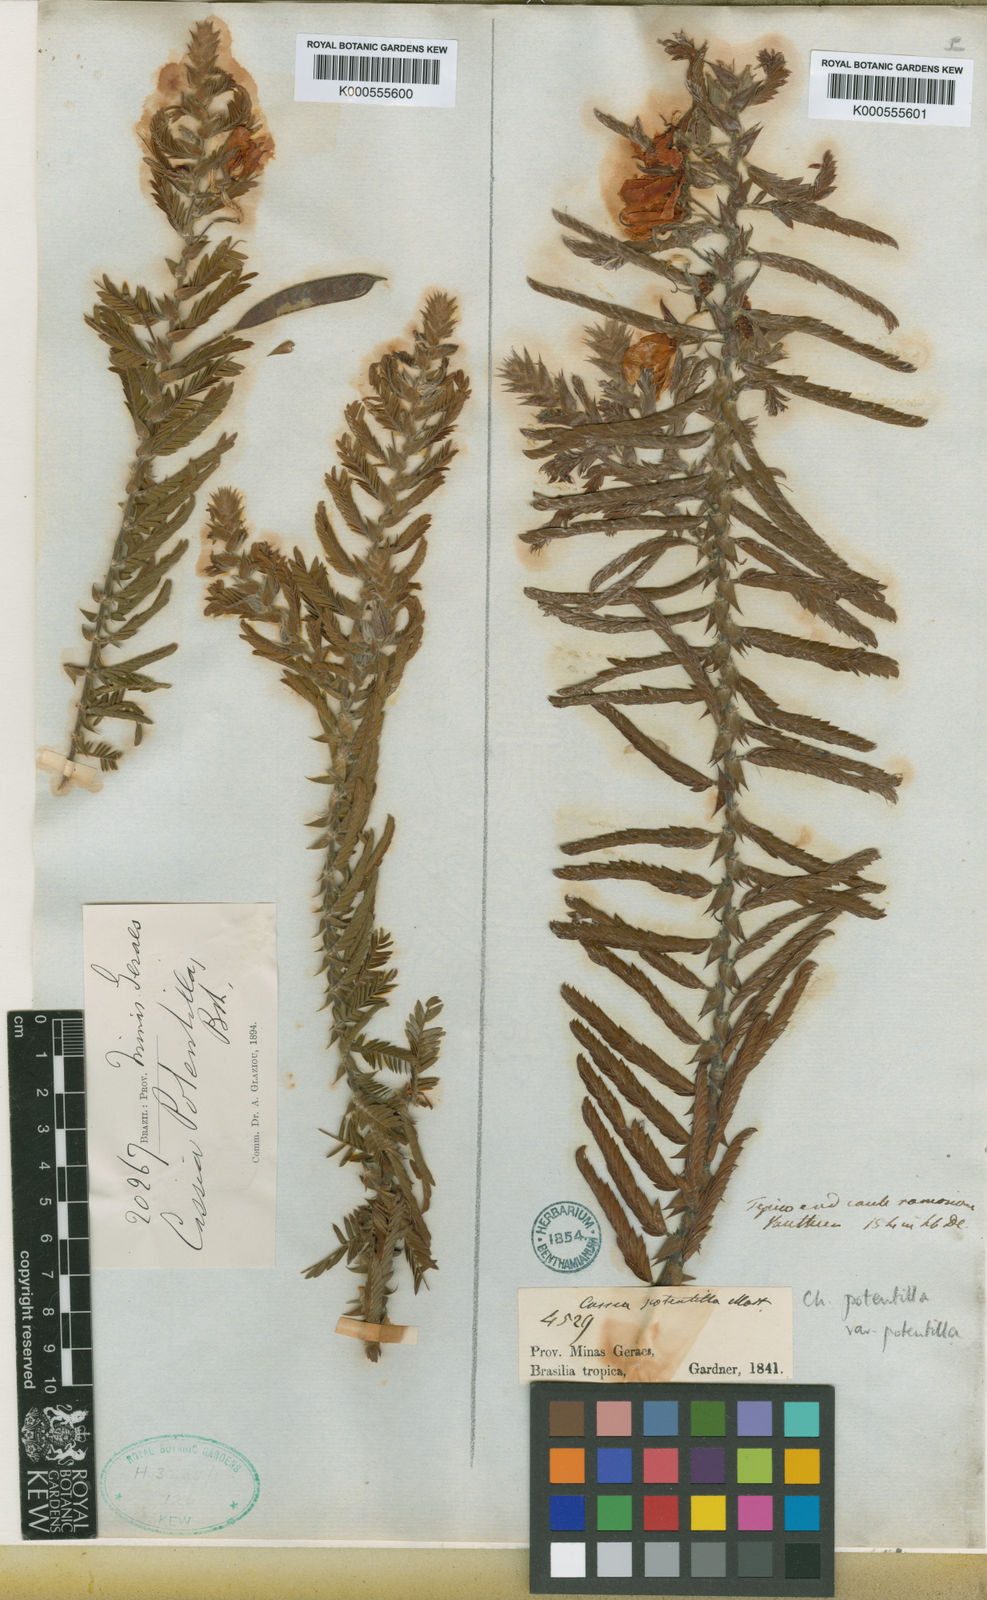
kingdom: Plantae
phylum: Tracheophyta
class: Magnoliopsida
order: Fabales
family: Fabaceae
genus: Chamaecrista
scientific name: Chamaecrista potentilla
